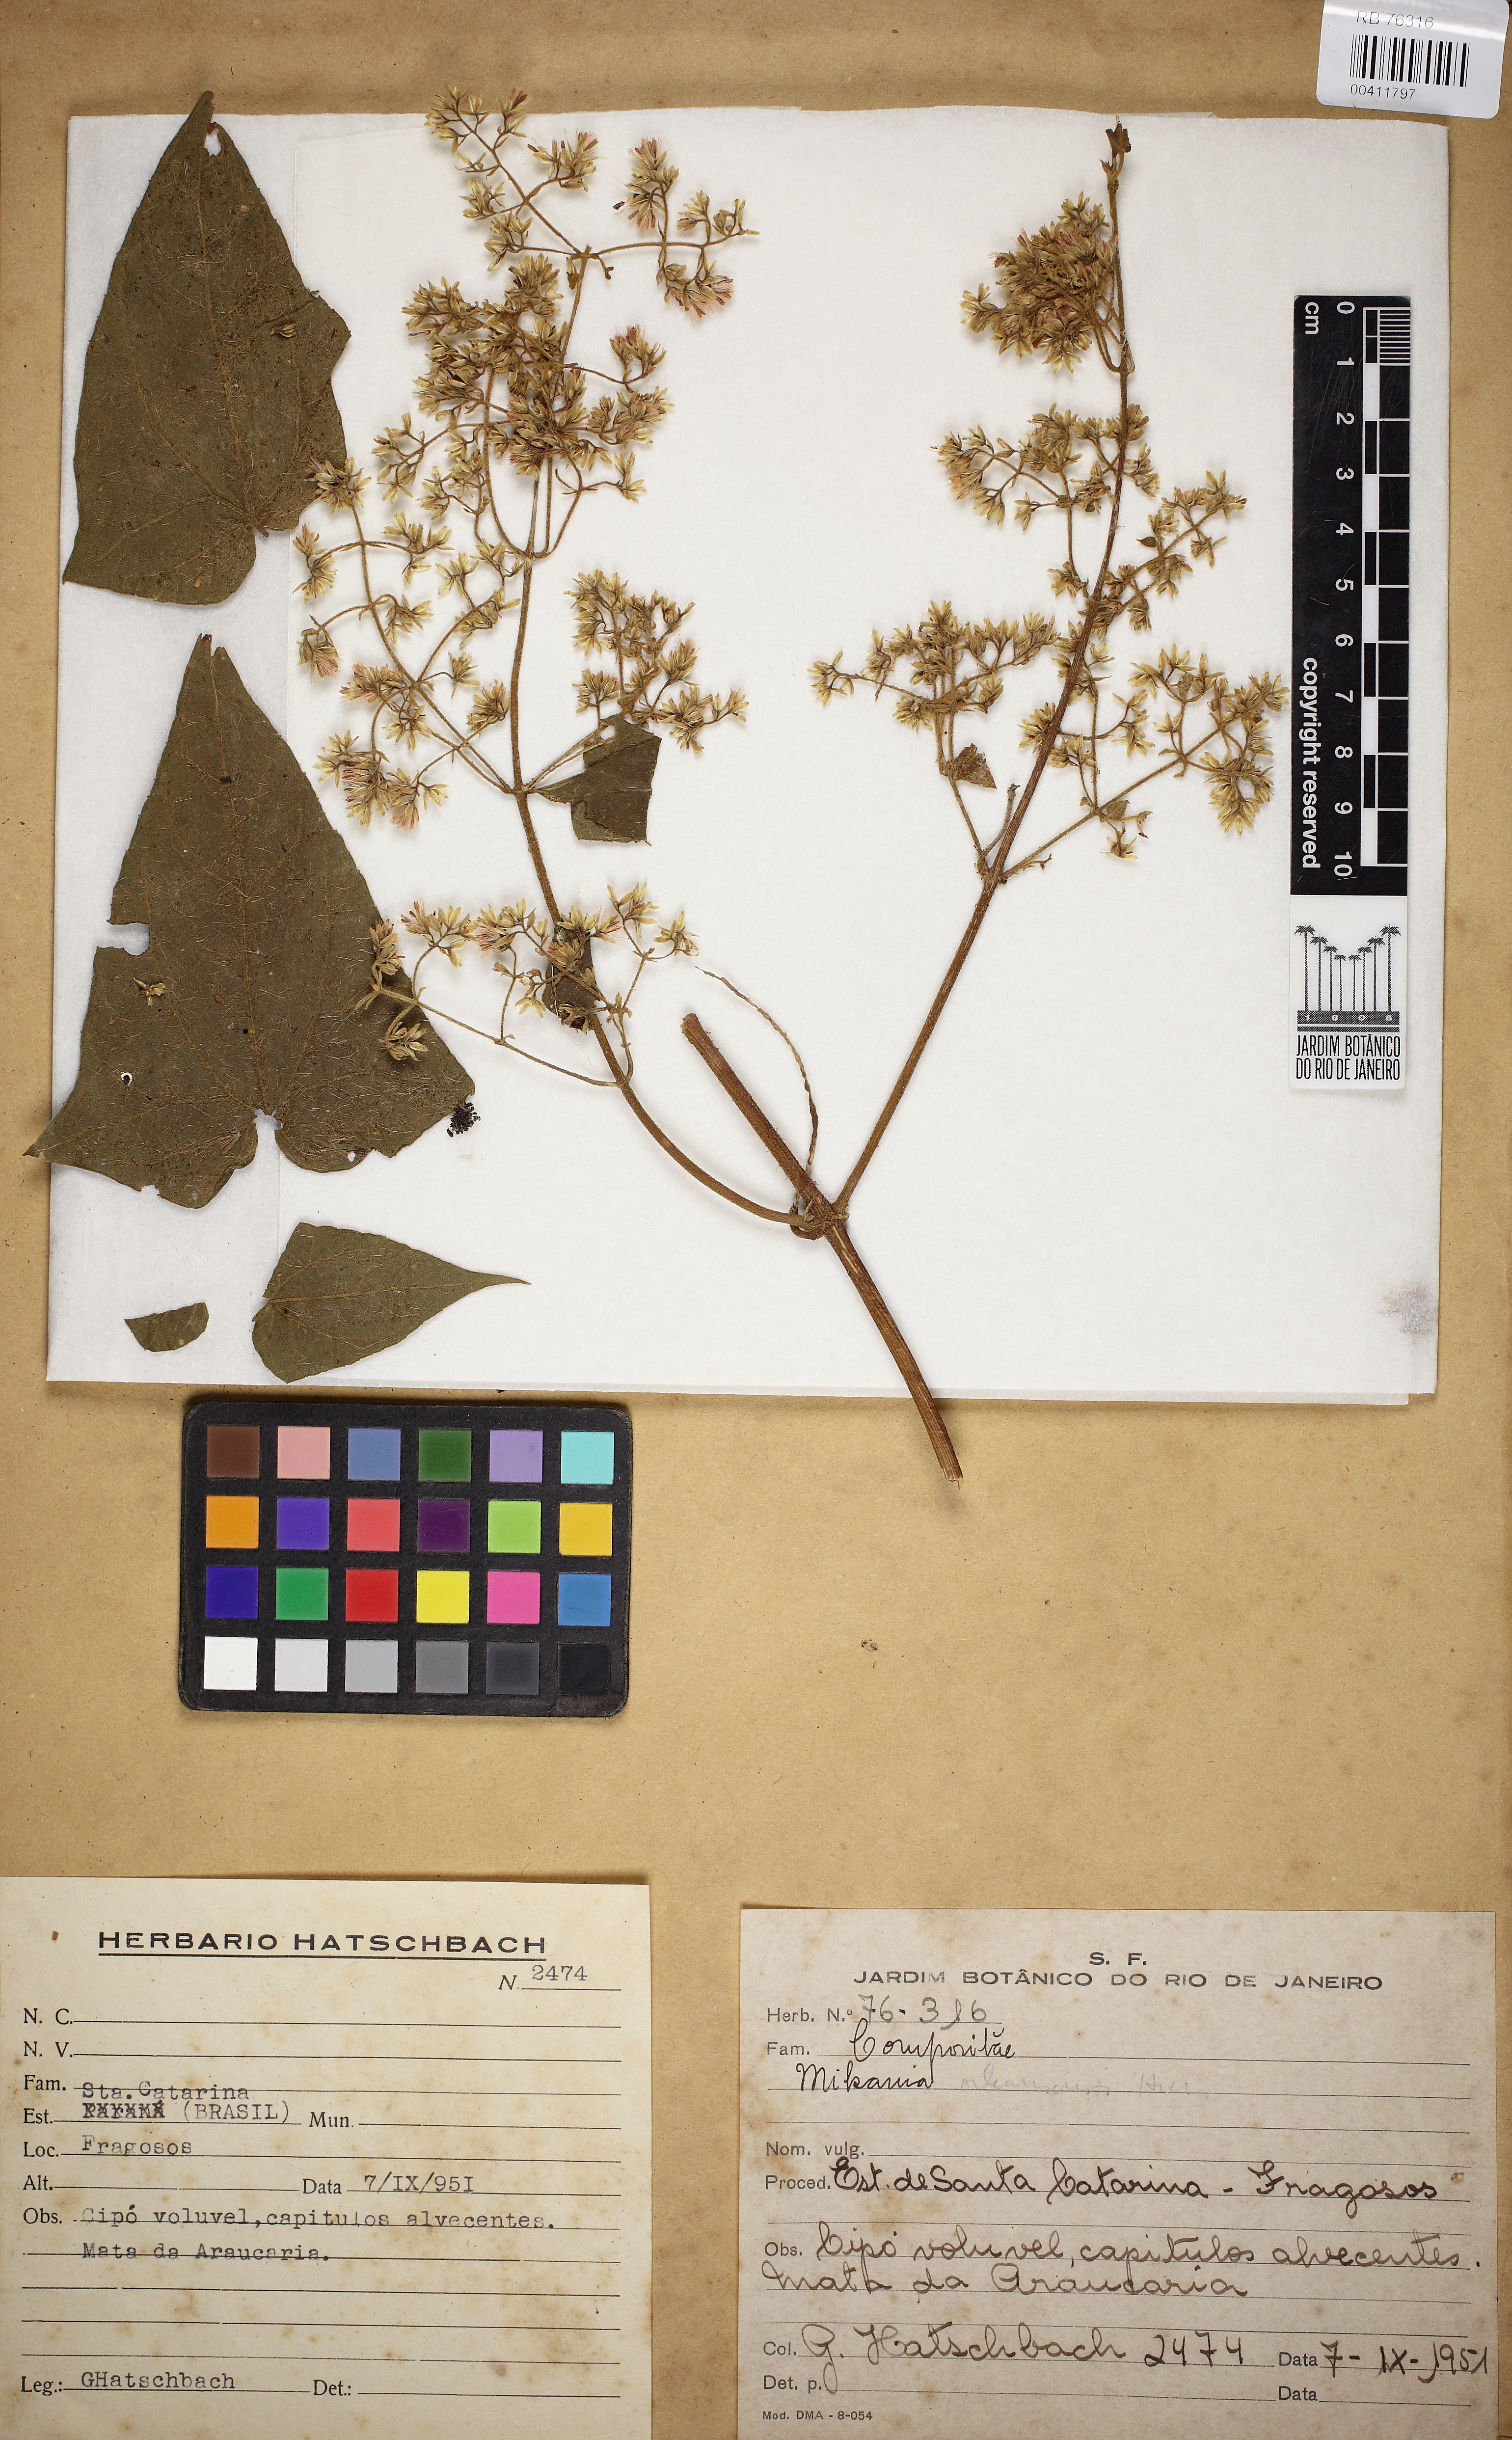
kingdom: Plantae
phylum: Tracheophyta
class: Magnoliopsida
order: Asterales
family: Asteraceae
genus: Mikania
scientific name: Mikania orleansensis
